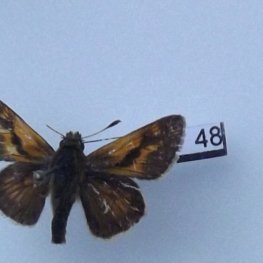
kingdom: Animalia
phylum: Arthropoda
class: Insecta
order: Lepidoptera
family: Hesperiidae
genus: Polites
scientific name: Polites themistocles
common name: Tawny-edged Skipper
